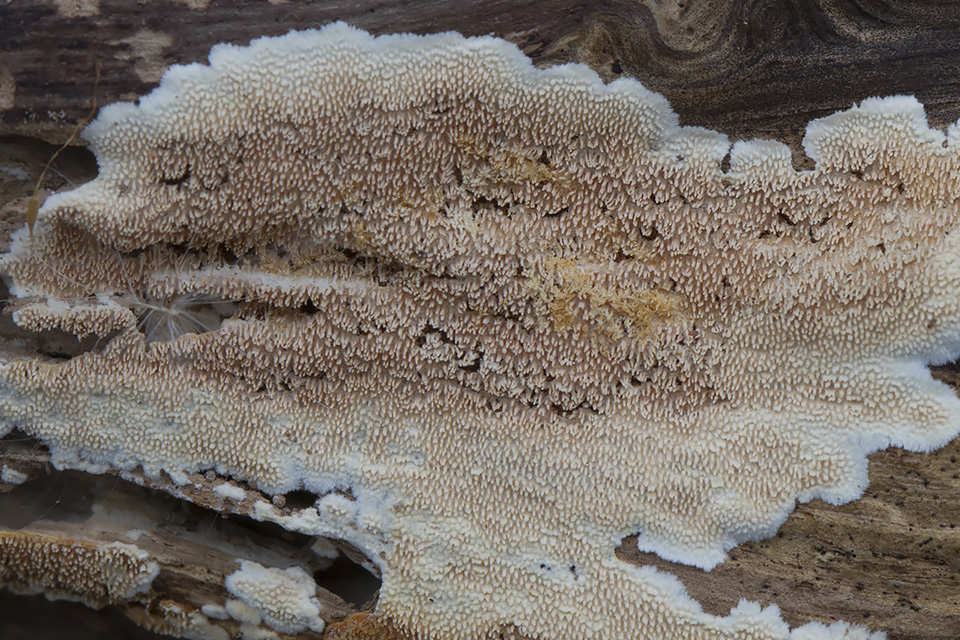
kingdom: Fungi
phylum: Basidiomycota
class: Agaricomycetes
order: Polyporales
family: Steccherinaceae
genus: Steccherinum
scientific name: Steccherinum ochraceum
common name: almindelig skønpig
